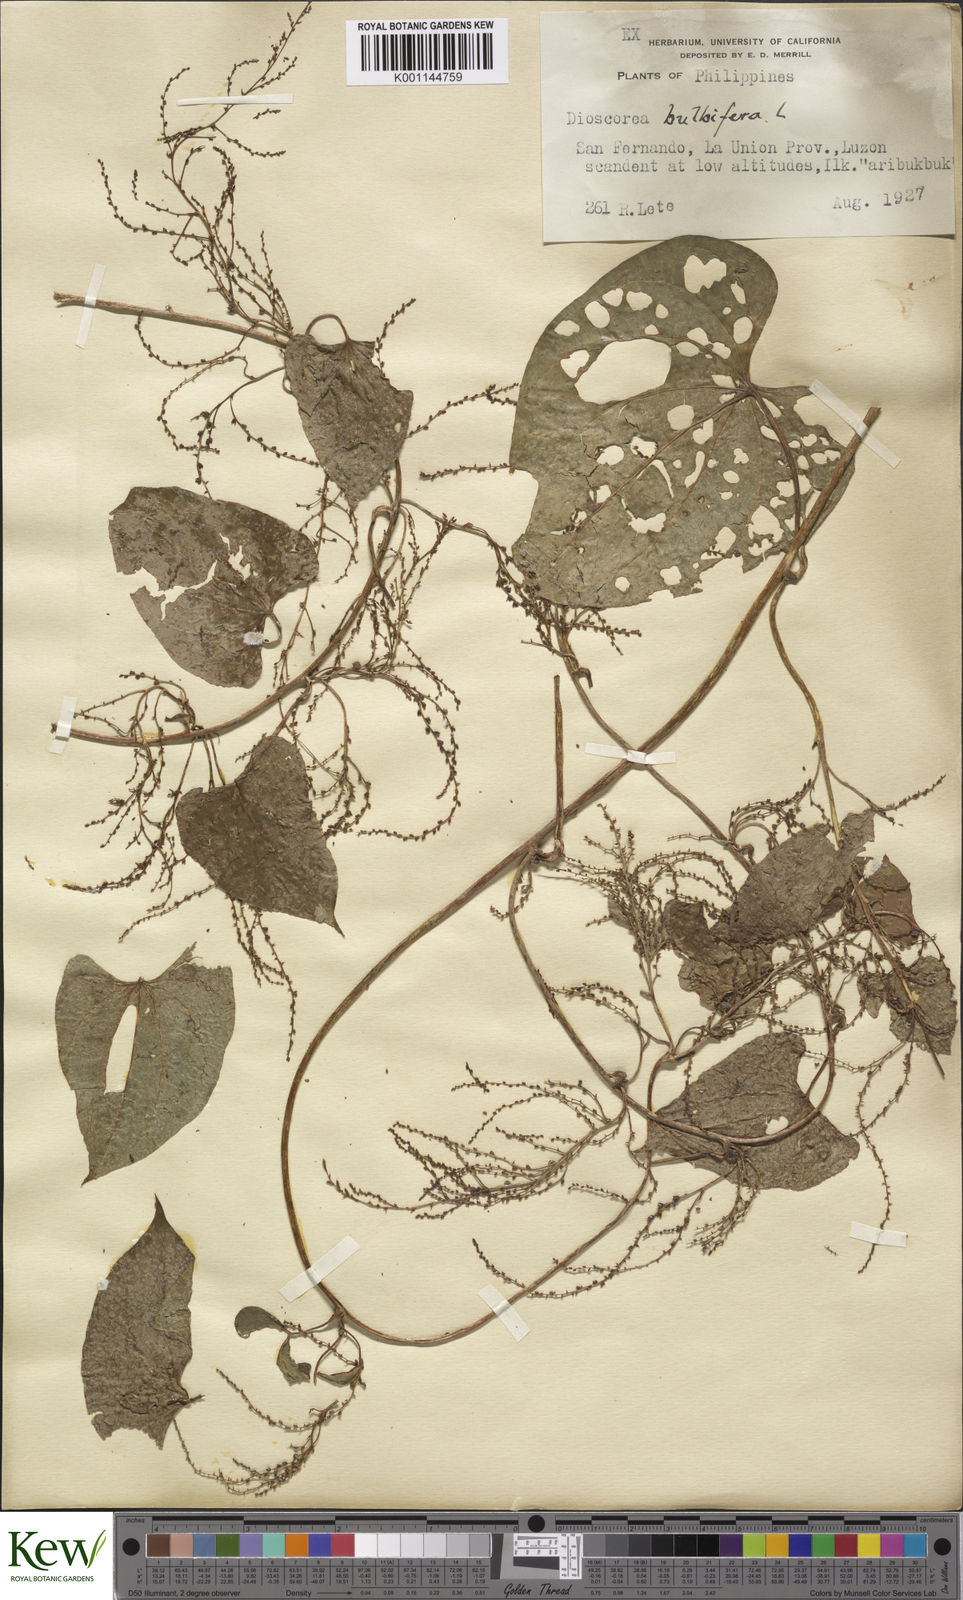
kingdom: Plantae
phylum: Tracheophyta
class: Liliopsida
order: Dioscoreales
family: Dioscoreaceae
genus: Dioscorea
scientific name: Dioscorea bulbifera
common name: Air yam
